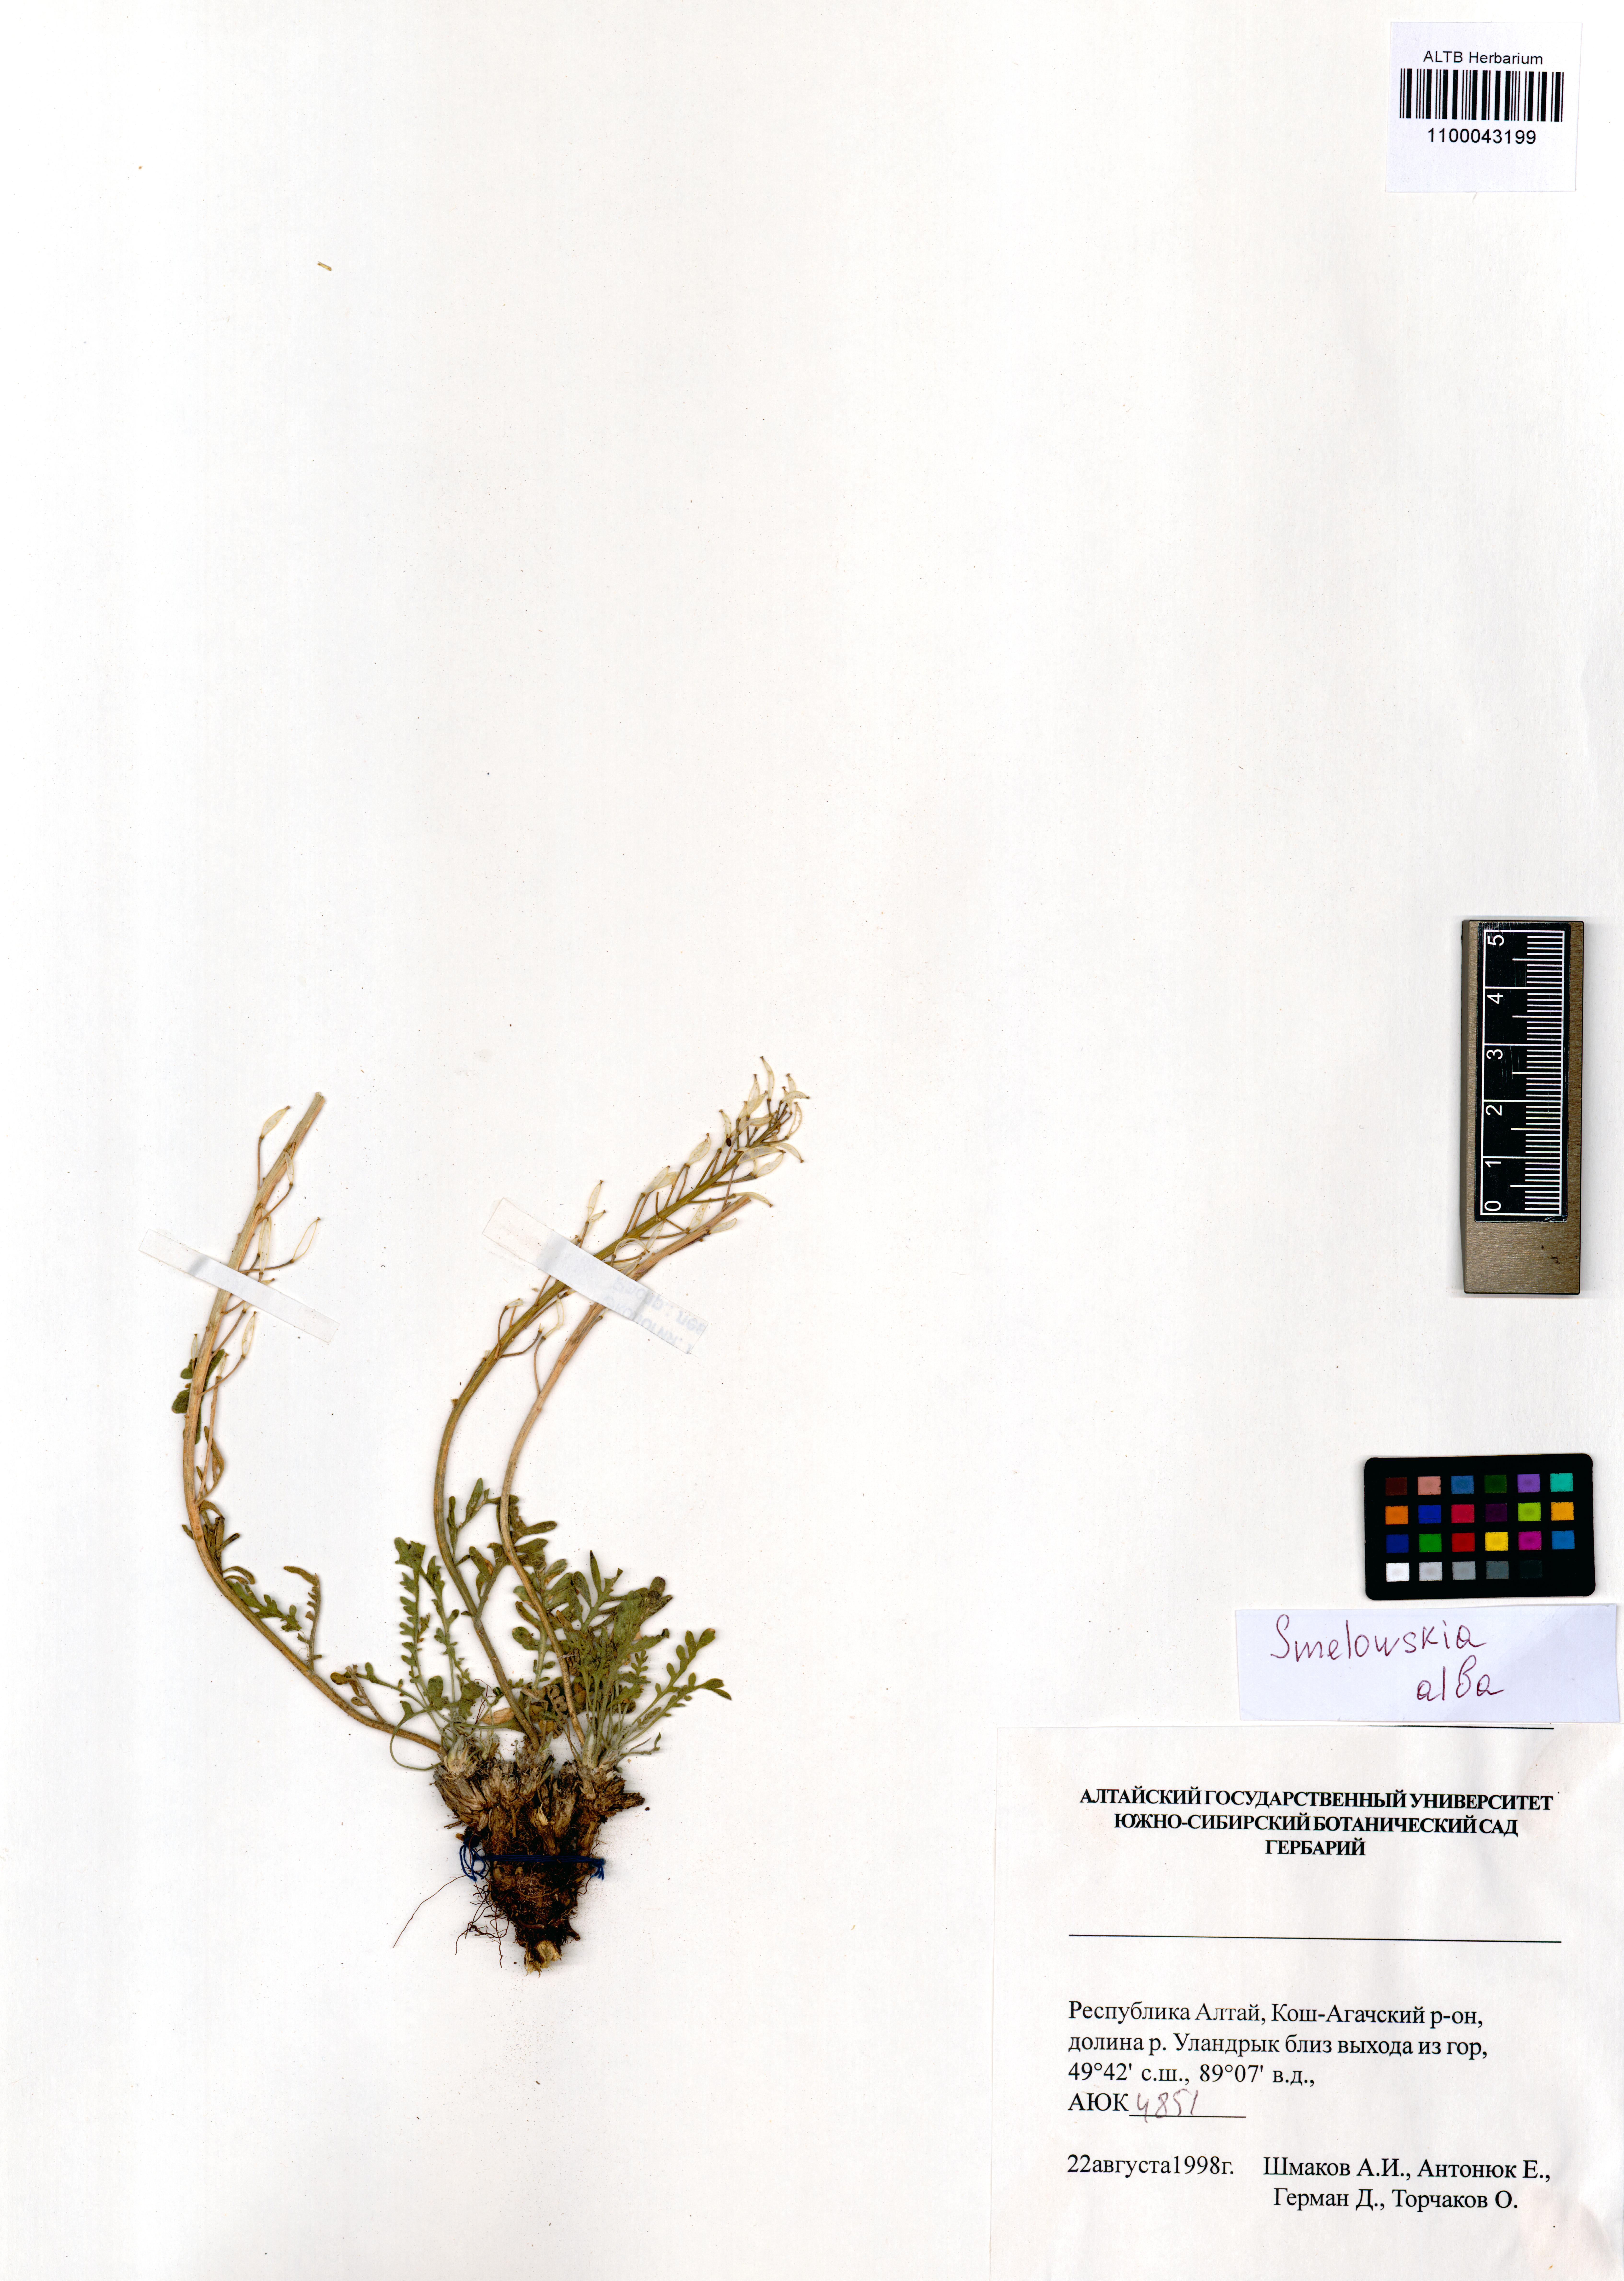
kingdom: Plantae
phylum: Tracheophyta
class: Magnoliopsida
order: Brassicales
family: Brassicaceae
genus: Smelowskia
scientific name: Smelowskia alba
